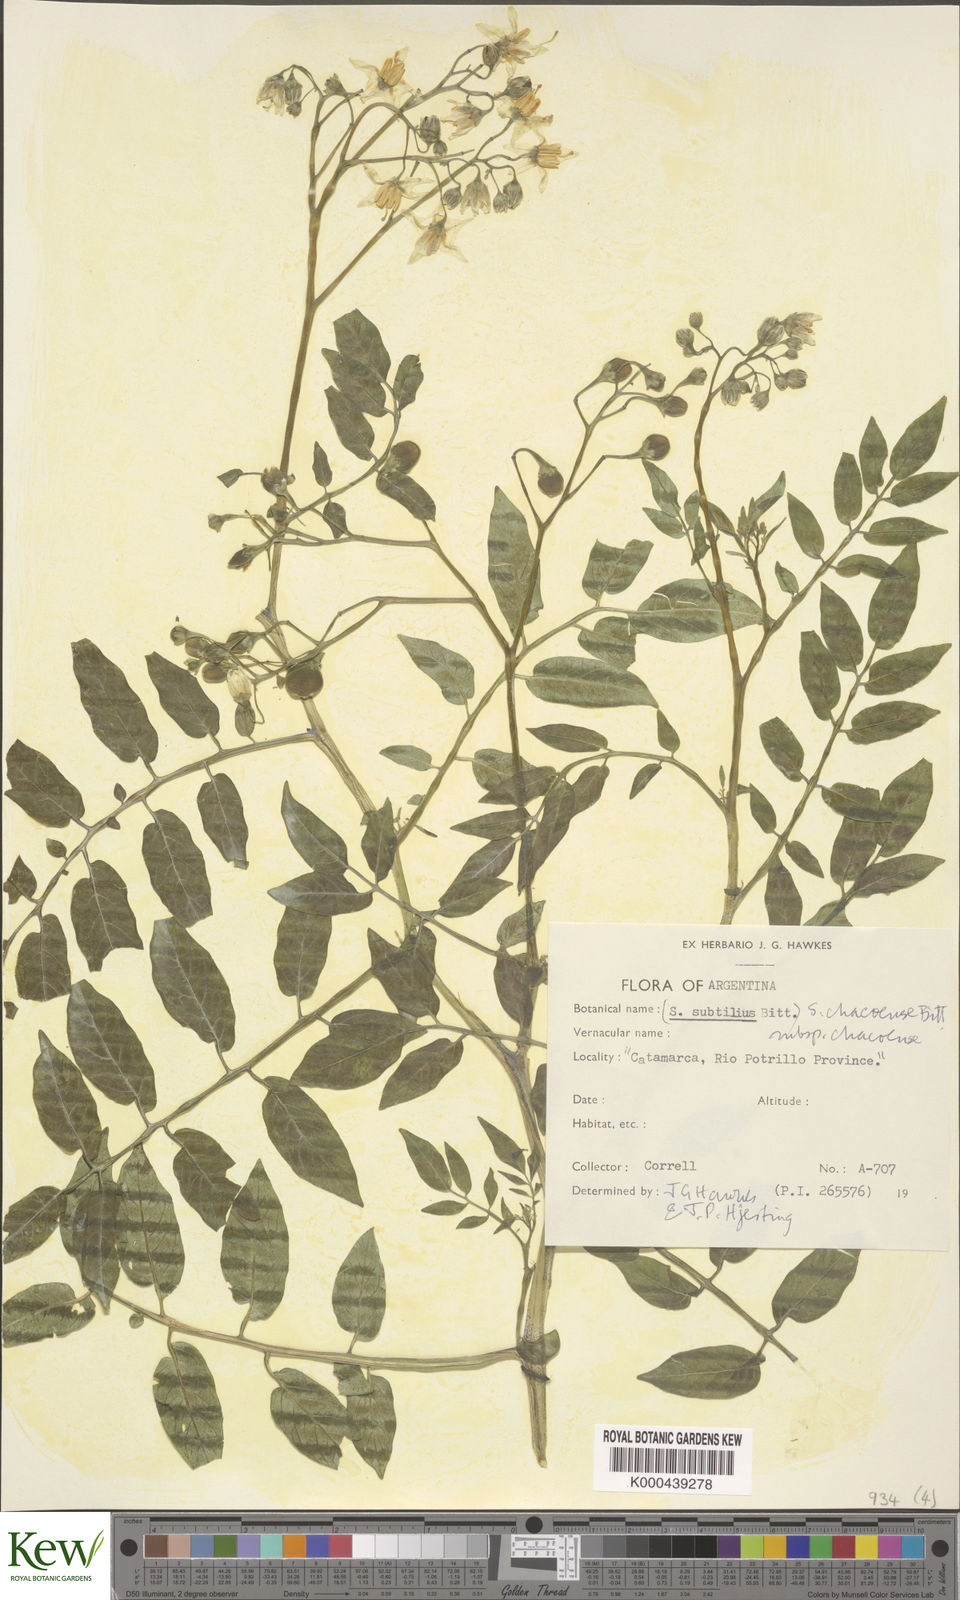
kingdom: Plantae
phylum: Tracheophyta
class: Magnoliopsida
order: Solanales
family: Solanaceae
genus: Solanum
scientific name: Solanum chacoense
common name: Chaco potato
